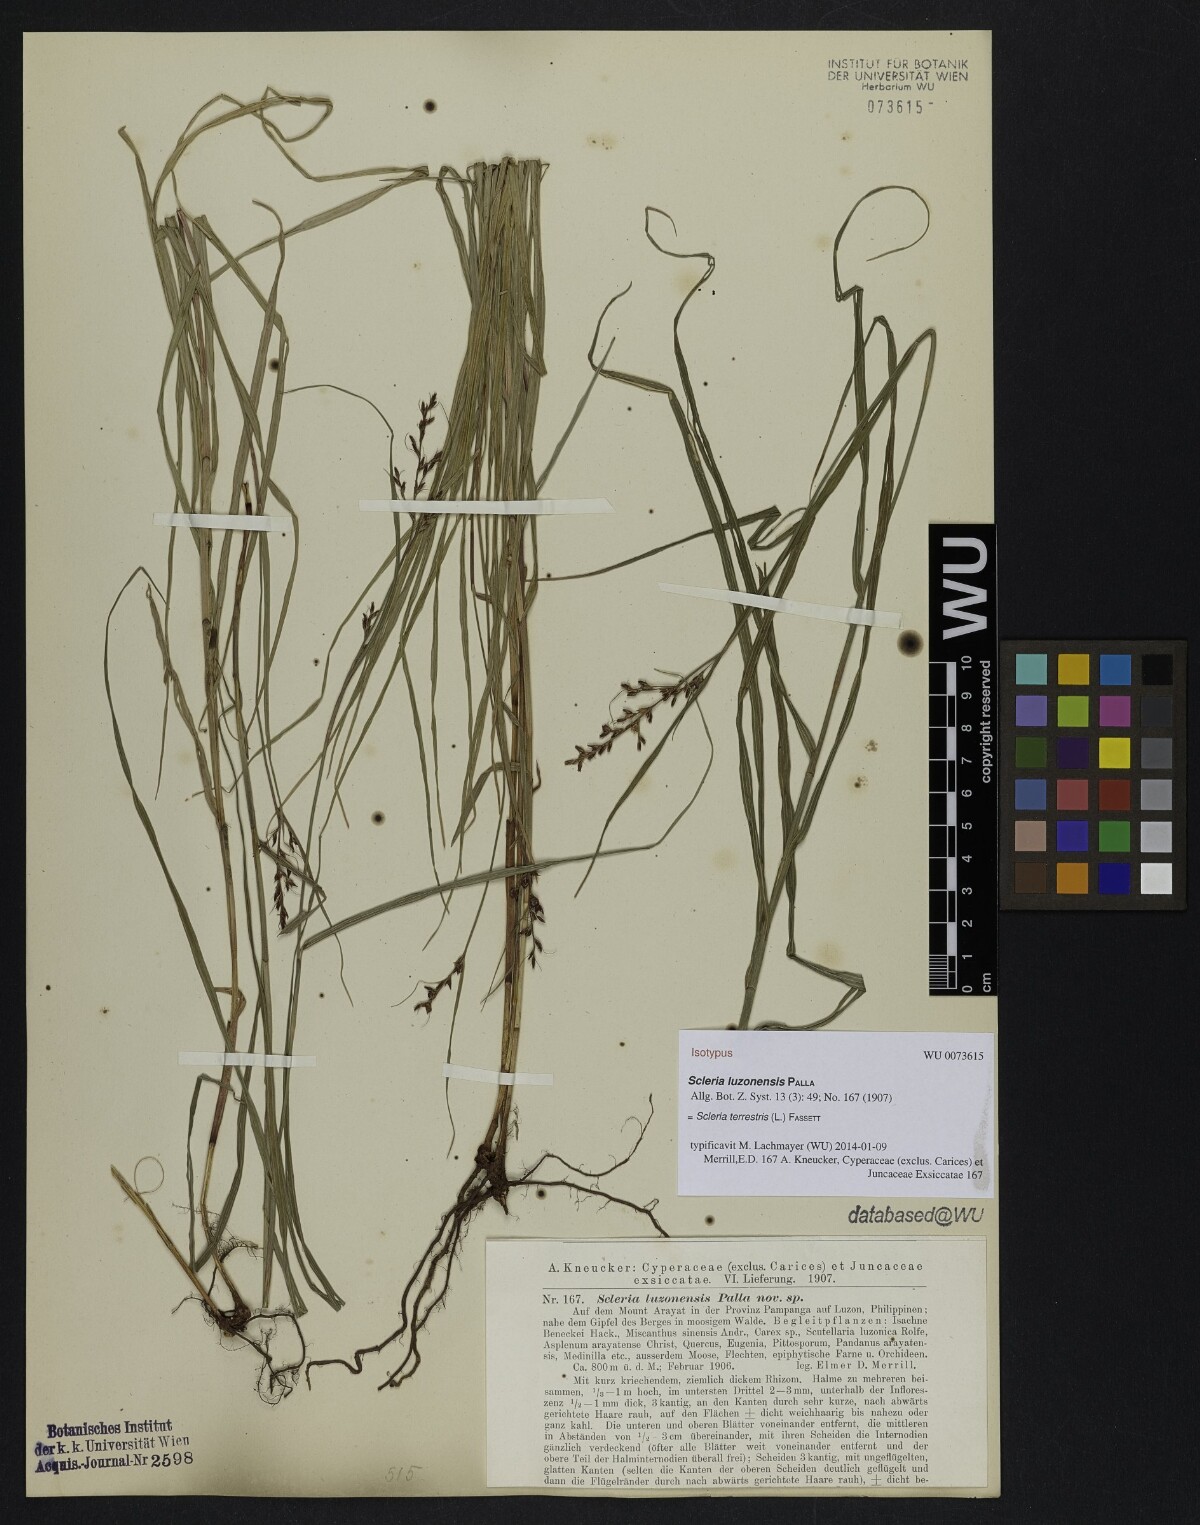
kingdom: Plantae
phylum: Tracheophyta
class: Liliopsida
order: Poales
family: Cyperaceae
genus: Scleria
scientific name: Scleria terrestris
